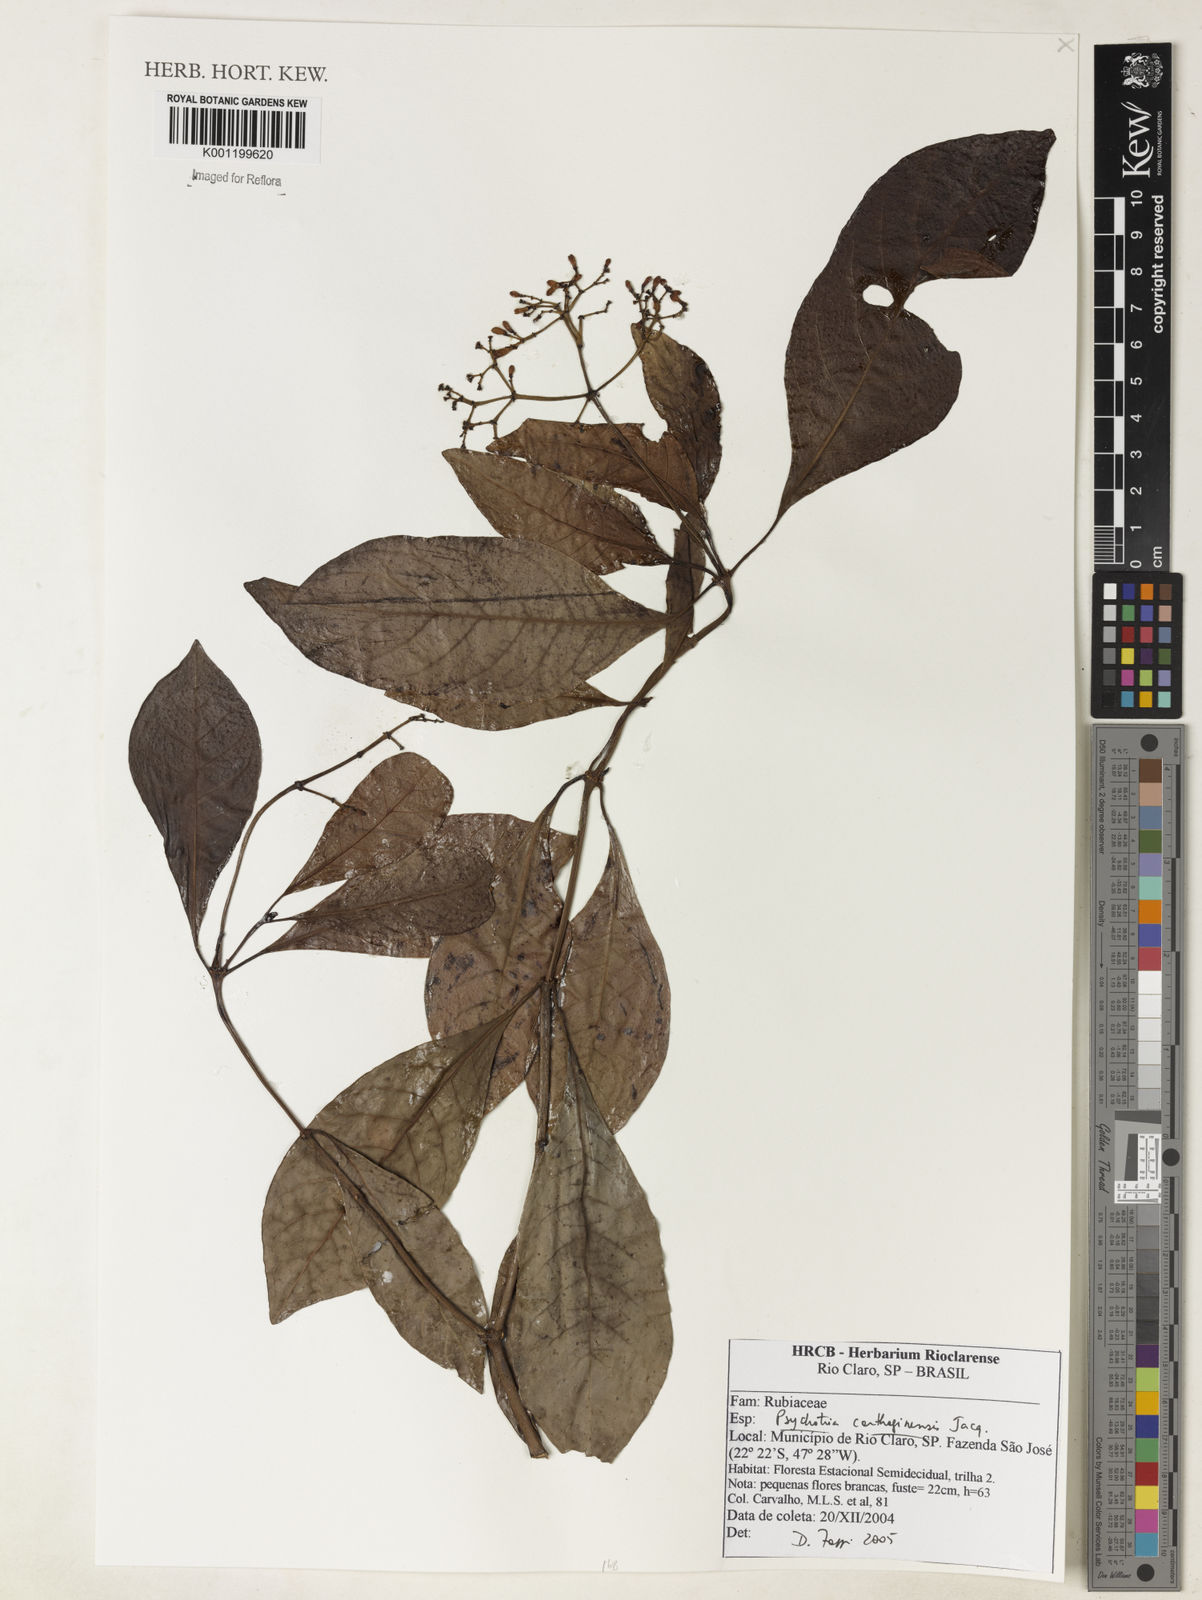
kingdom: Plantae
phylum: Tracheophyta
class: Magnoliopsida
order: Gentianales
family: Rubiaceae
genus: Psychotria
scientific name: Psychotria carthagenensis
